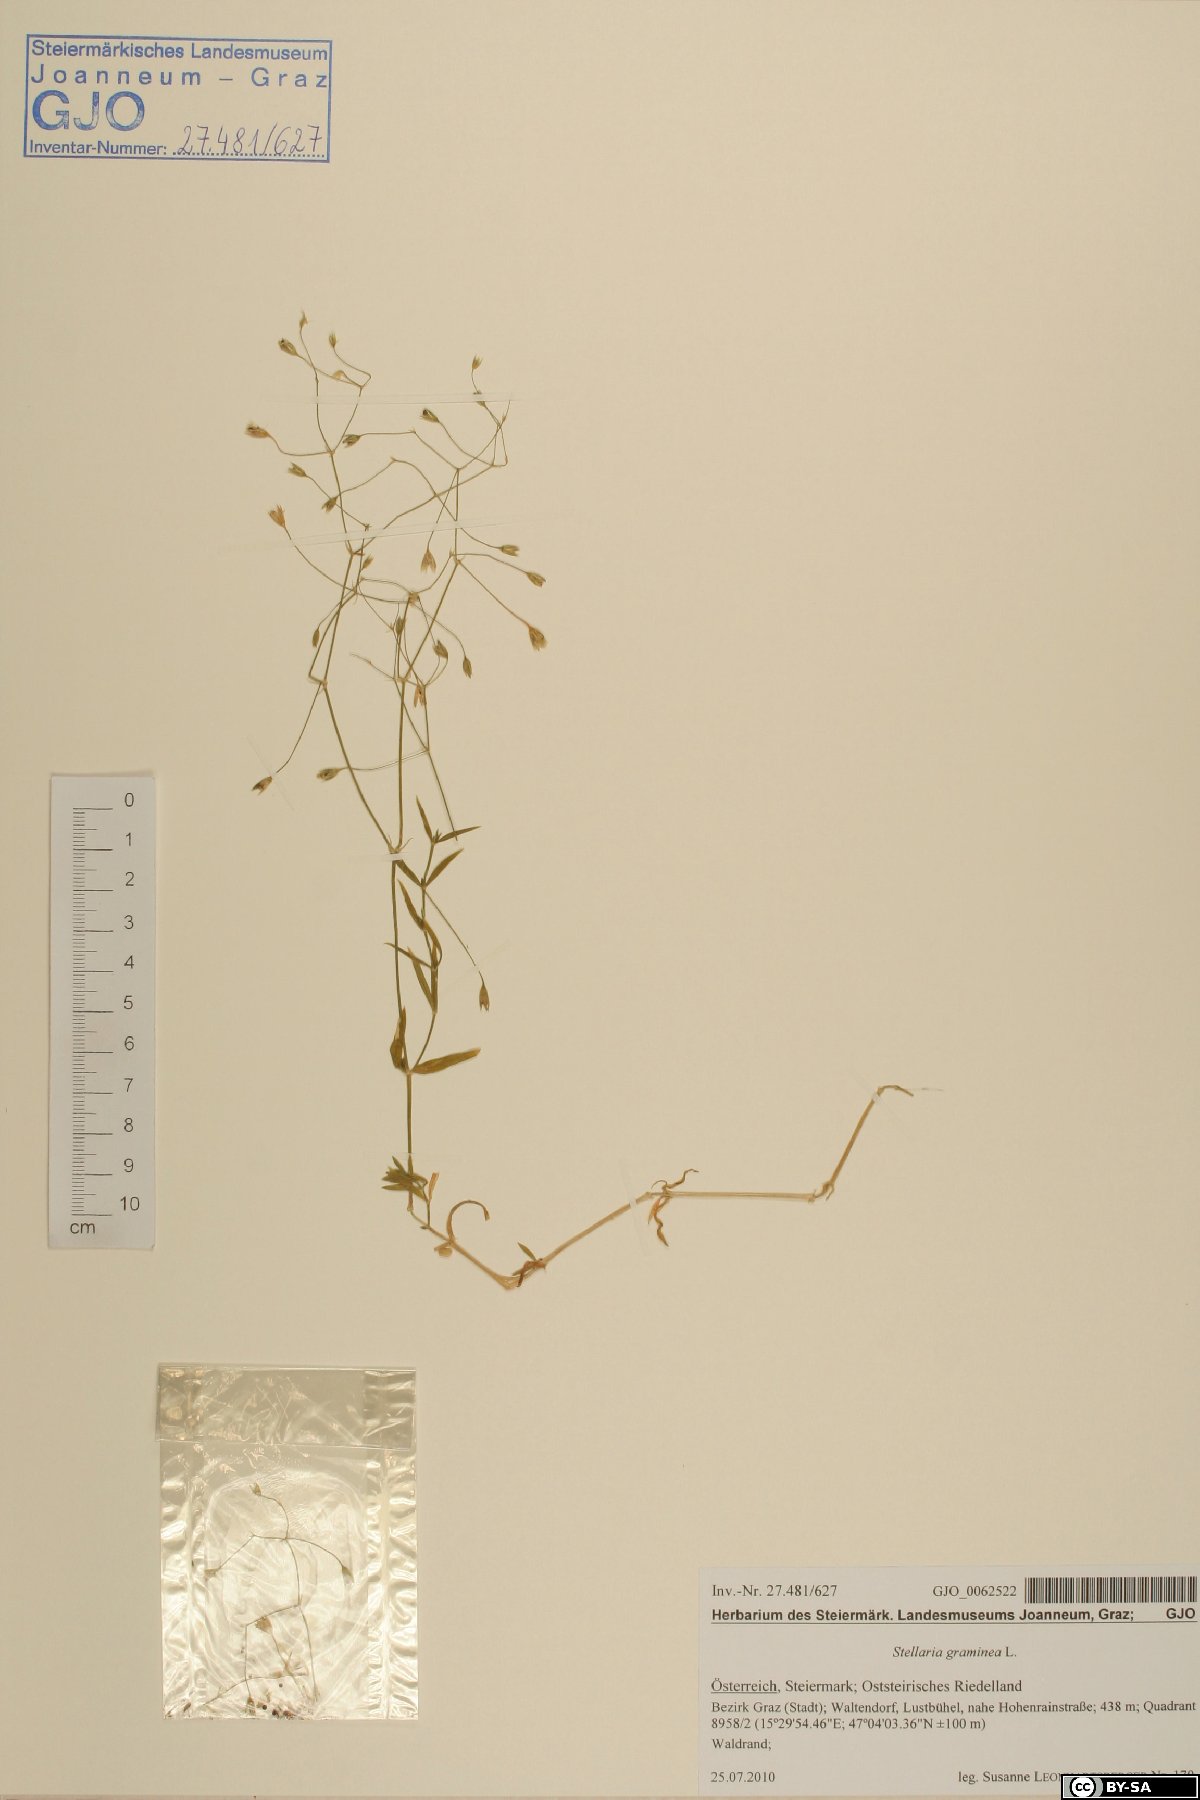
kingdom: Plantae
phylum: Tracheophyta
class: Magnoliopsida
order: Caryophyllales
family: Caryophyllaceae
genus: Stellaria
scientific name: Stellaria graminea
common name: Grass-like starwort
